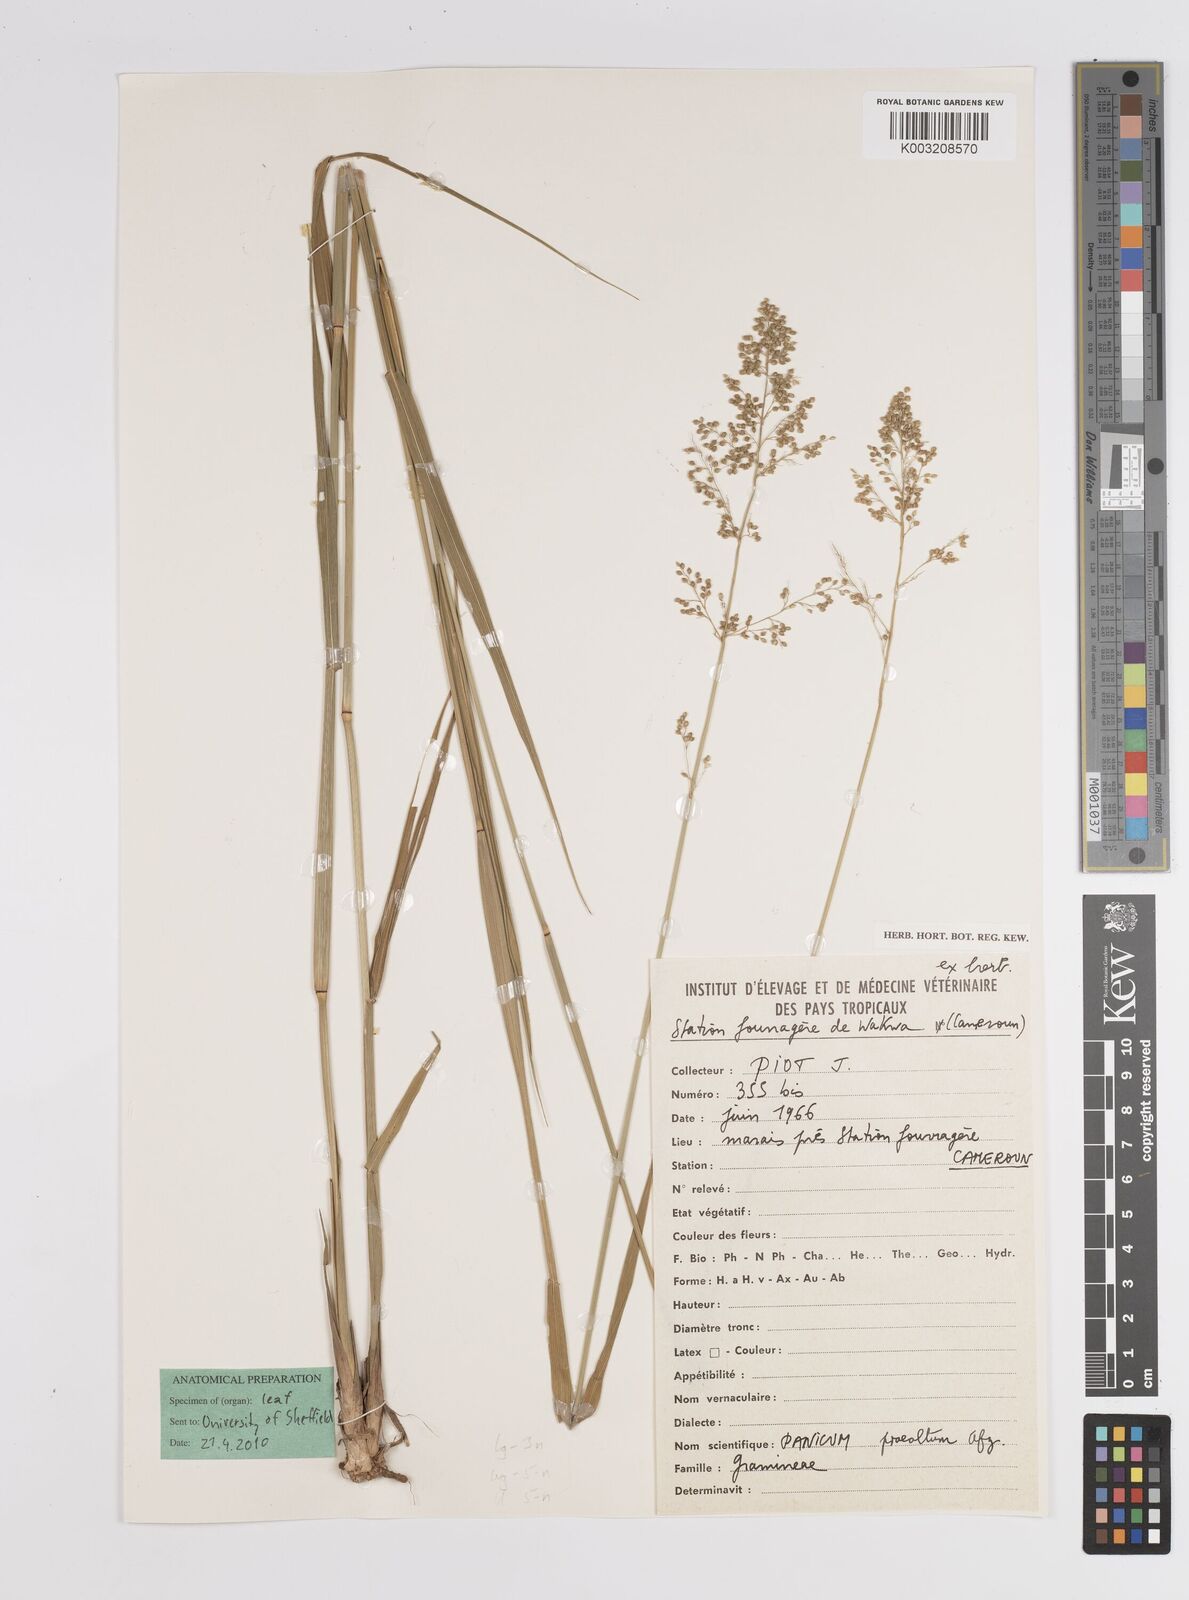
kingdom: Plantae
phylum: Tracheophyta
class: Liliopsida
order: Poales
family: Poaceae
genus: Trichanthecium
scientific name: Trichanthecium margaritiferum
